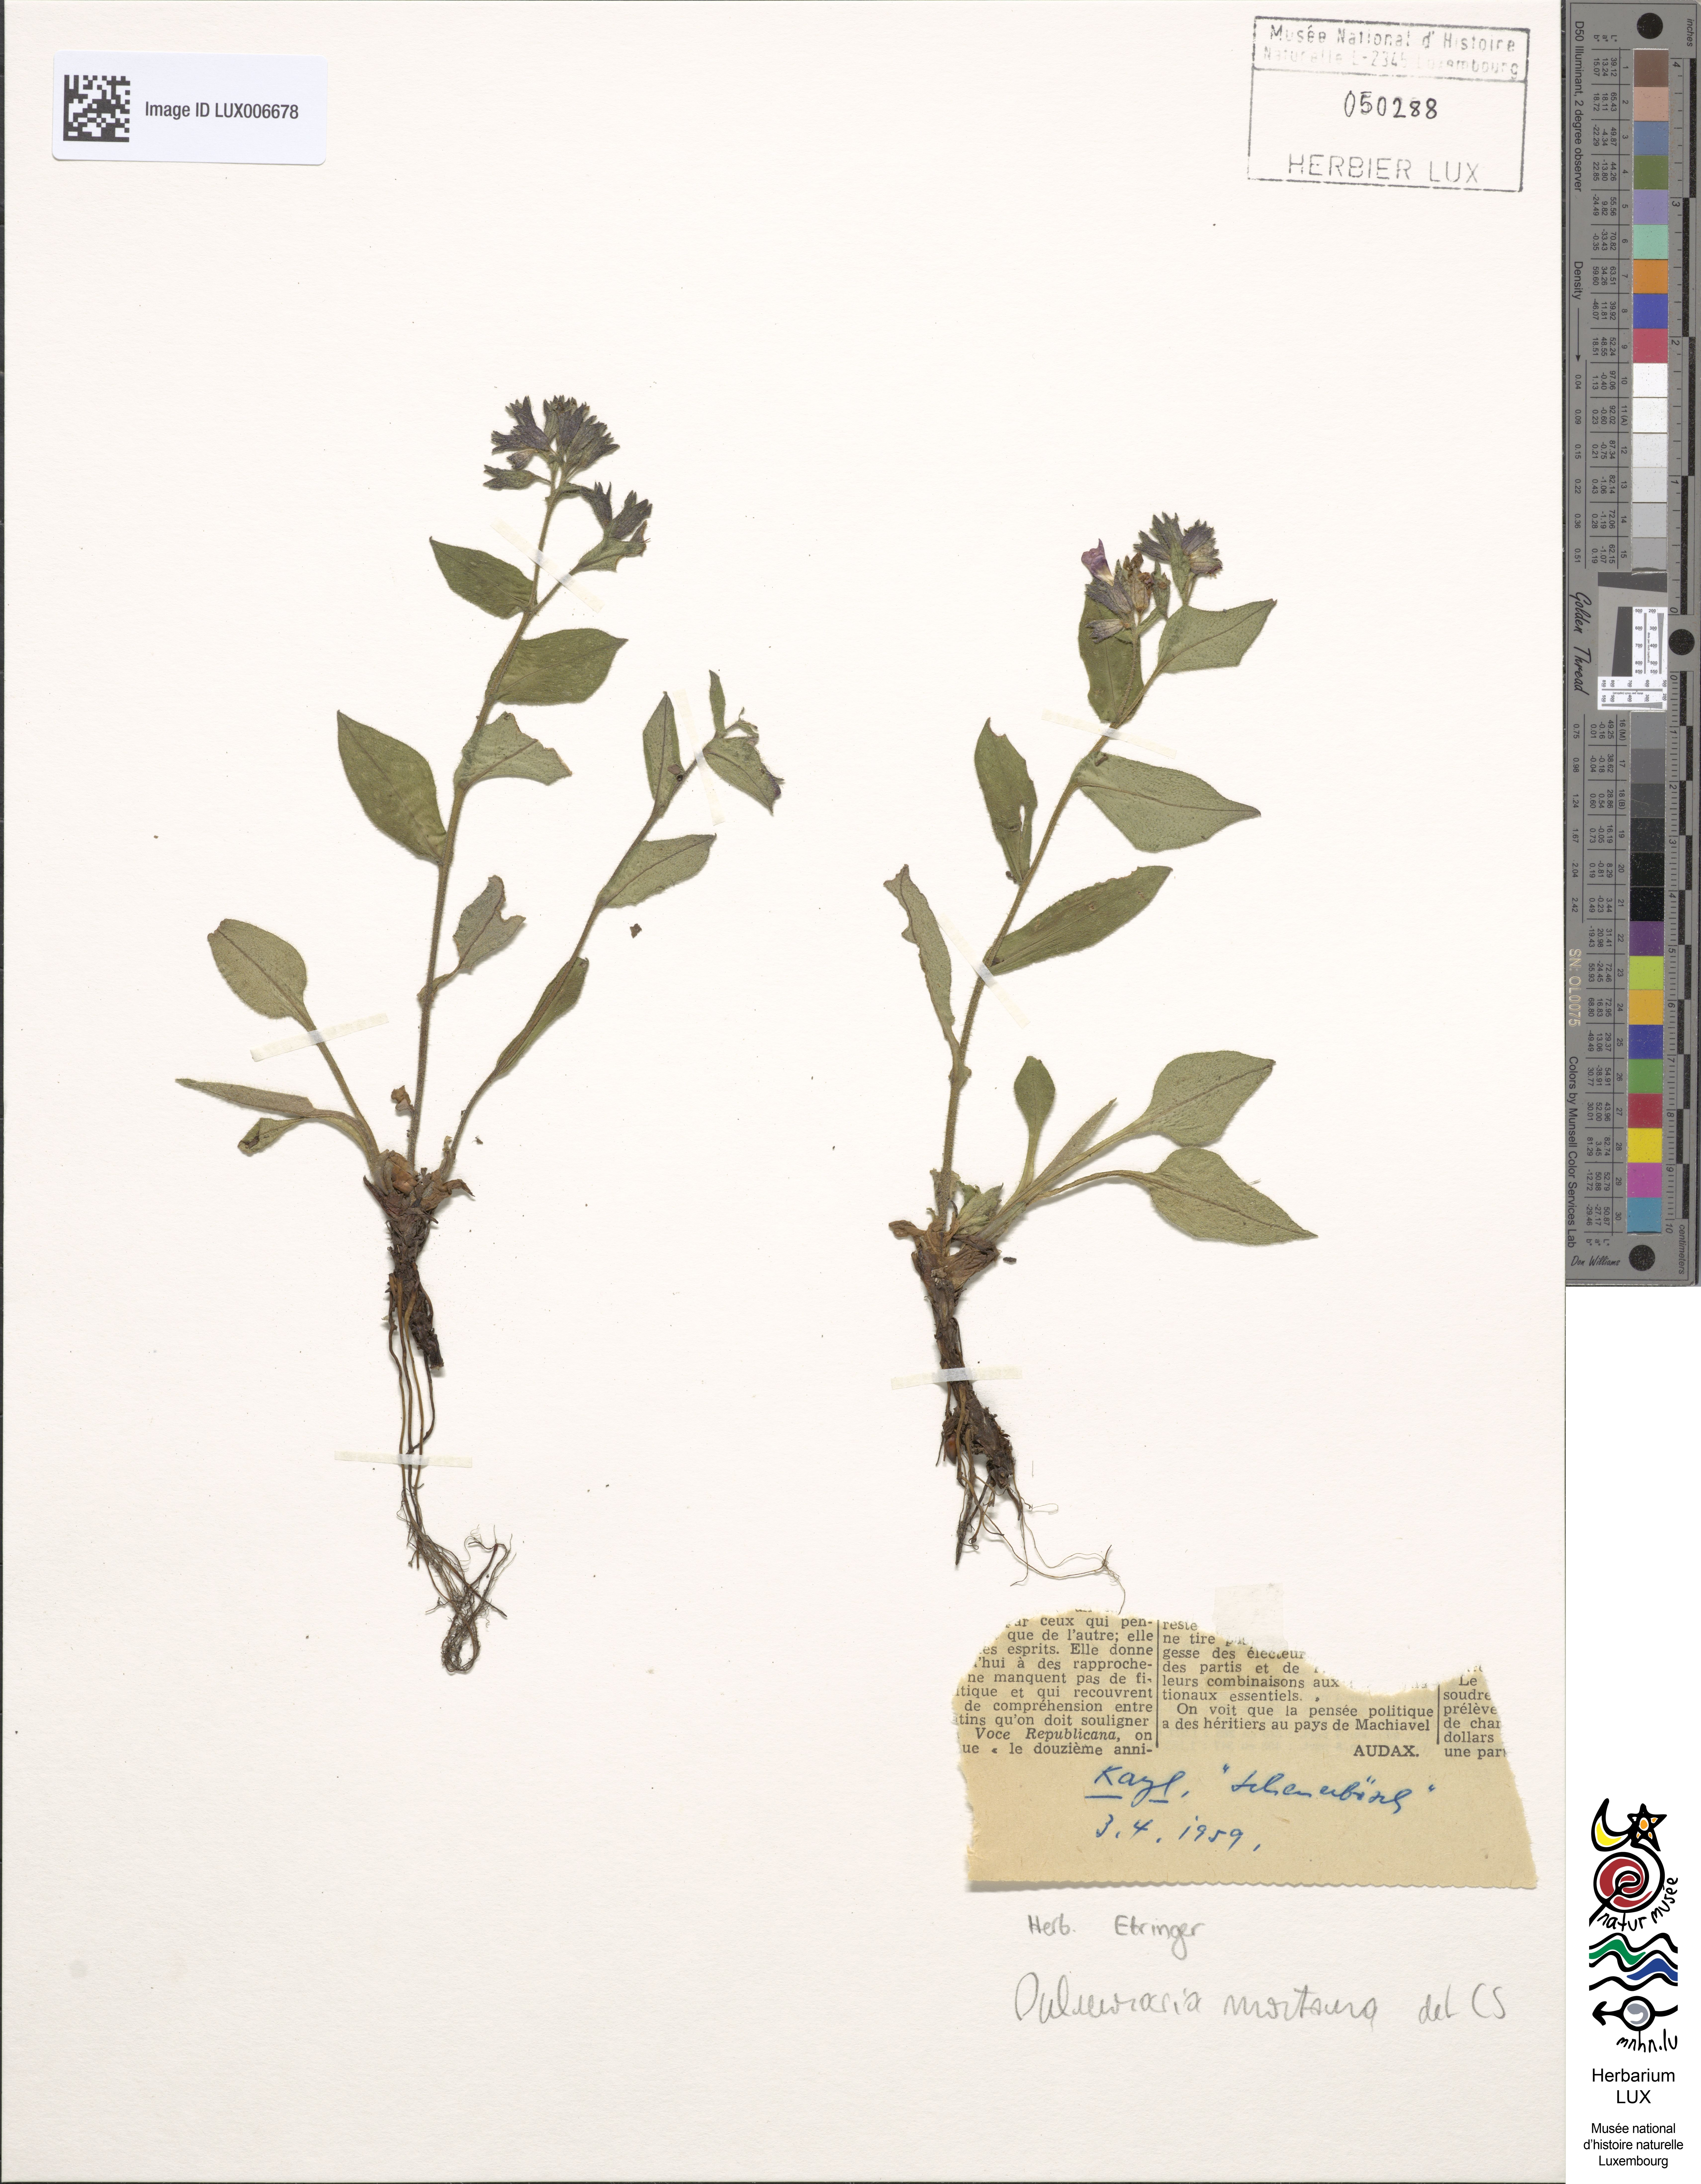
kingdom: Plantae
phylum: Tracheophyta
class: Magnoliopsida
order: Boraginales
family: Boraginaceae
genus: Pulmonaria
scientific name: Pulmonaria montana
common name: Mountain lungwort
